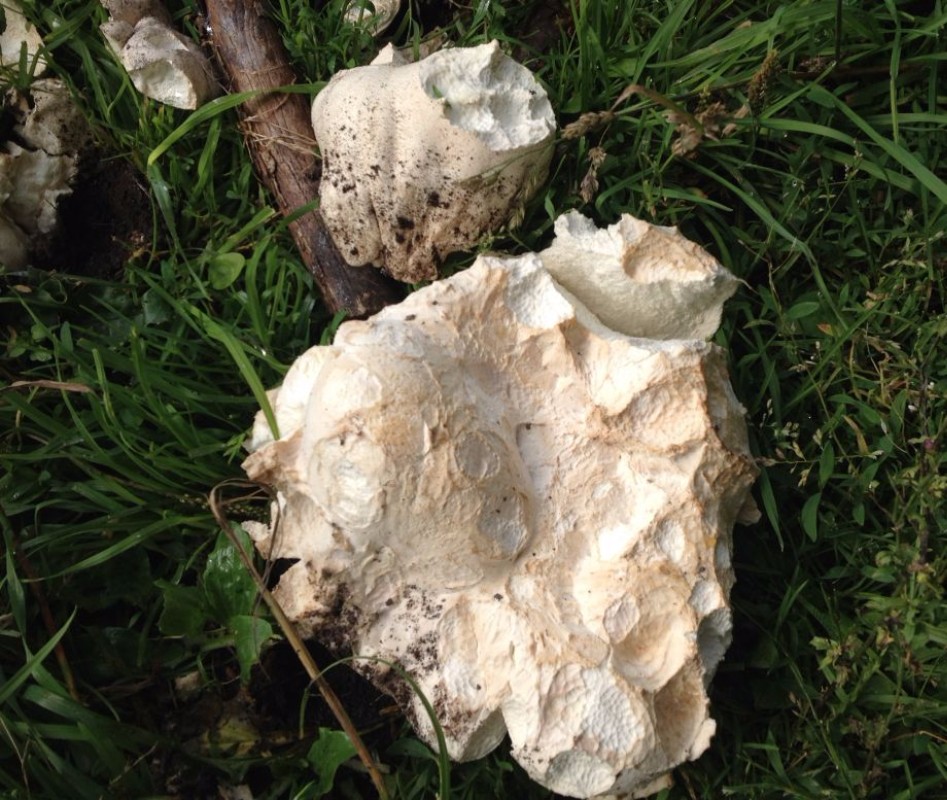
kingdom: Fungi
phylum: Basidiomycota
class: Agaricomycetes
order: Agaricales
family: Lycoperdaceae
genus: Calvatia
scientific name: Calvatia gigantea
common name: kæmpestøvbold
